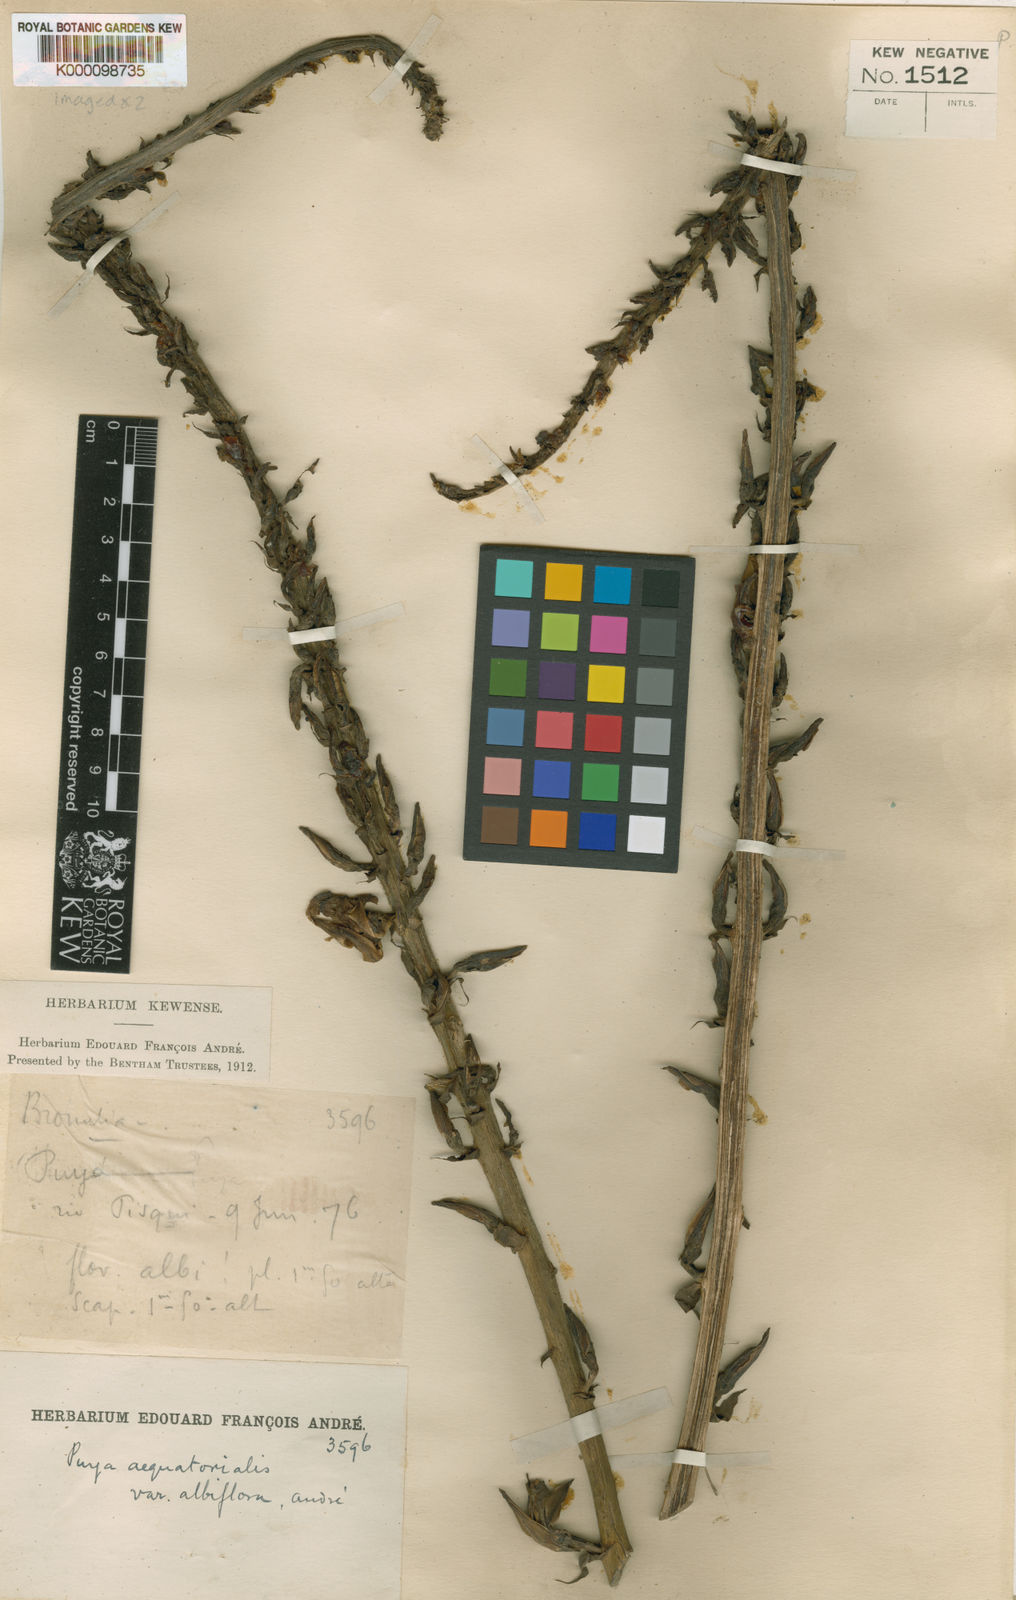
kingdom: Plantae
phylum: Tracheophyta
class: Liliopsida
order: Poales
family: Bromeliaceae
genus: Puya
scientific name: Puya aequatorialis
